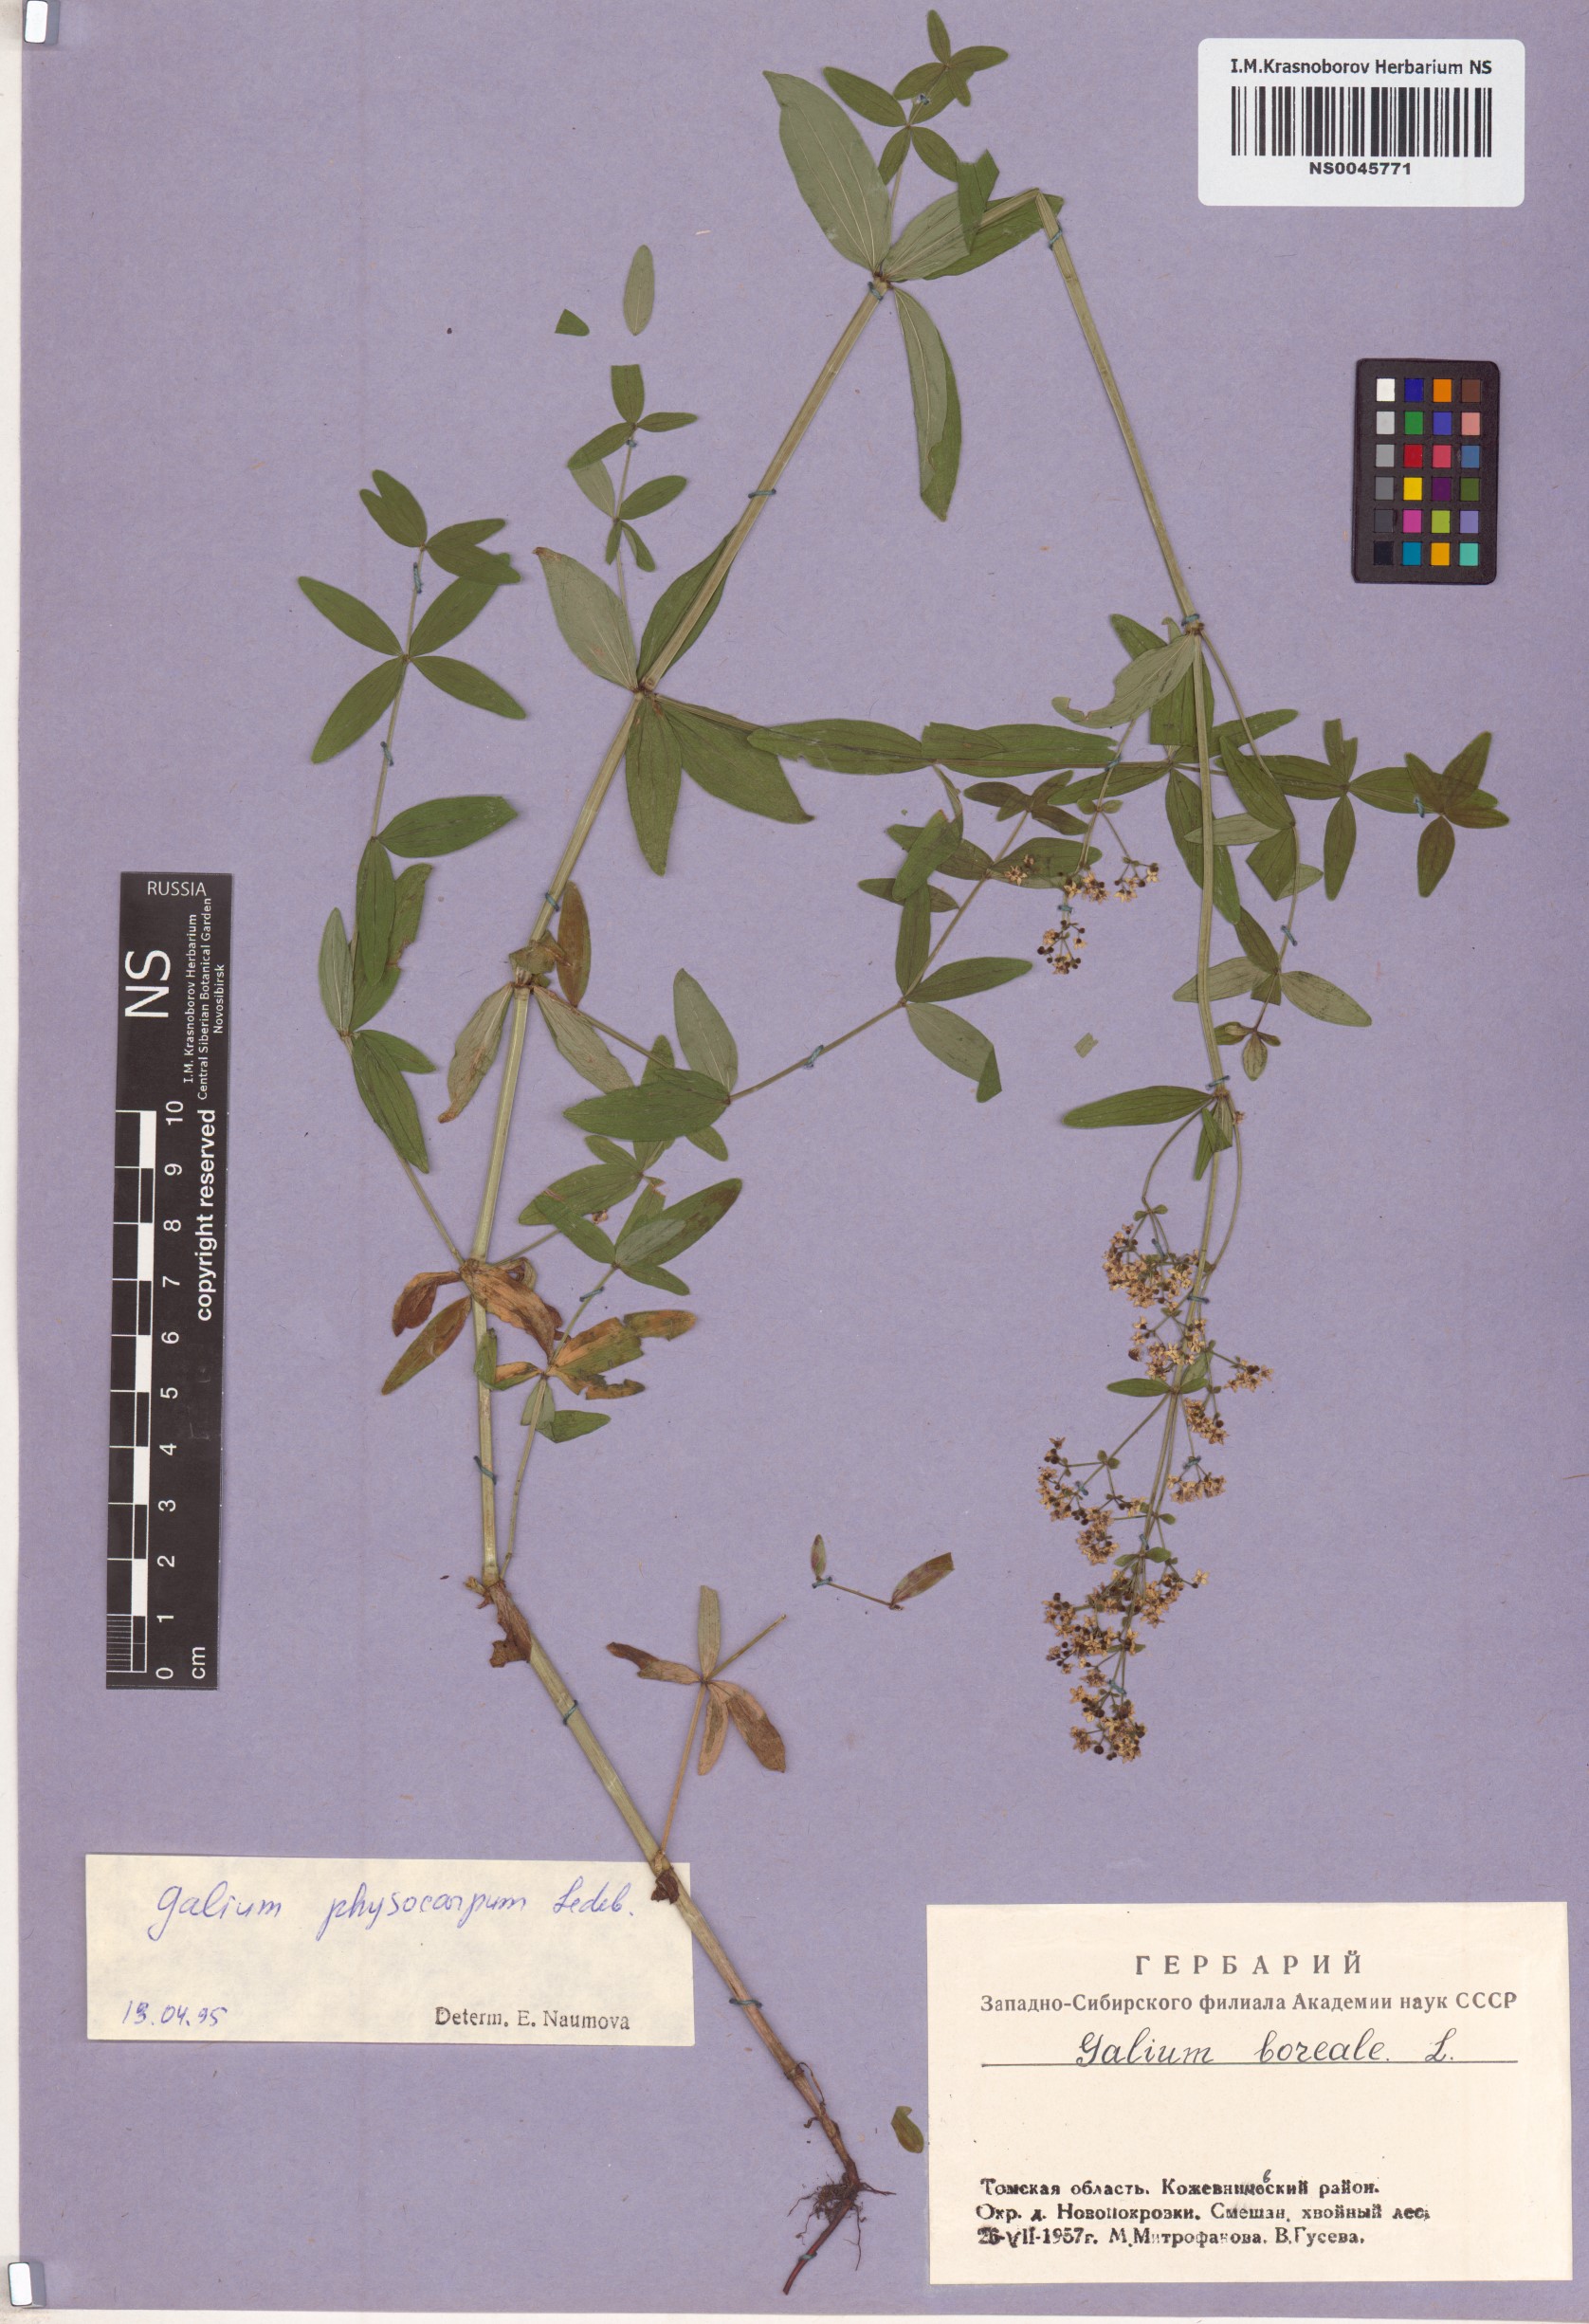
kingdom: Plantae
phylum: Tracheophyta
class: Magnoliopsida
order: Gentianales
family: Rubiaceae
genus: Galium
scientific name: Galium boreale
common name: Northern bedstraw
